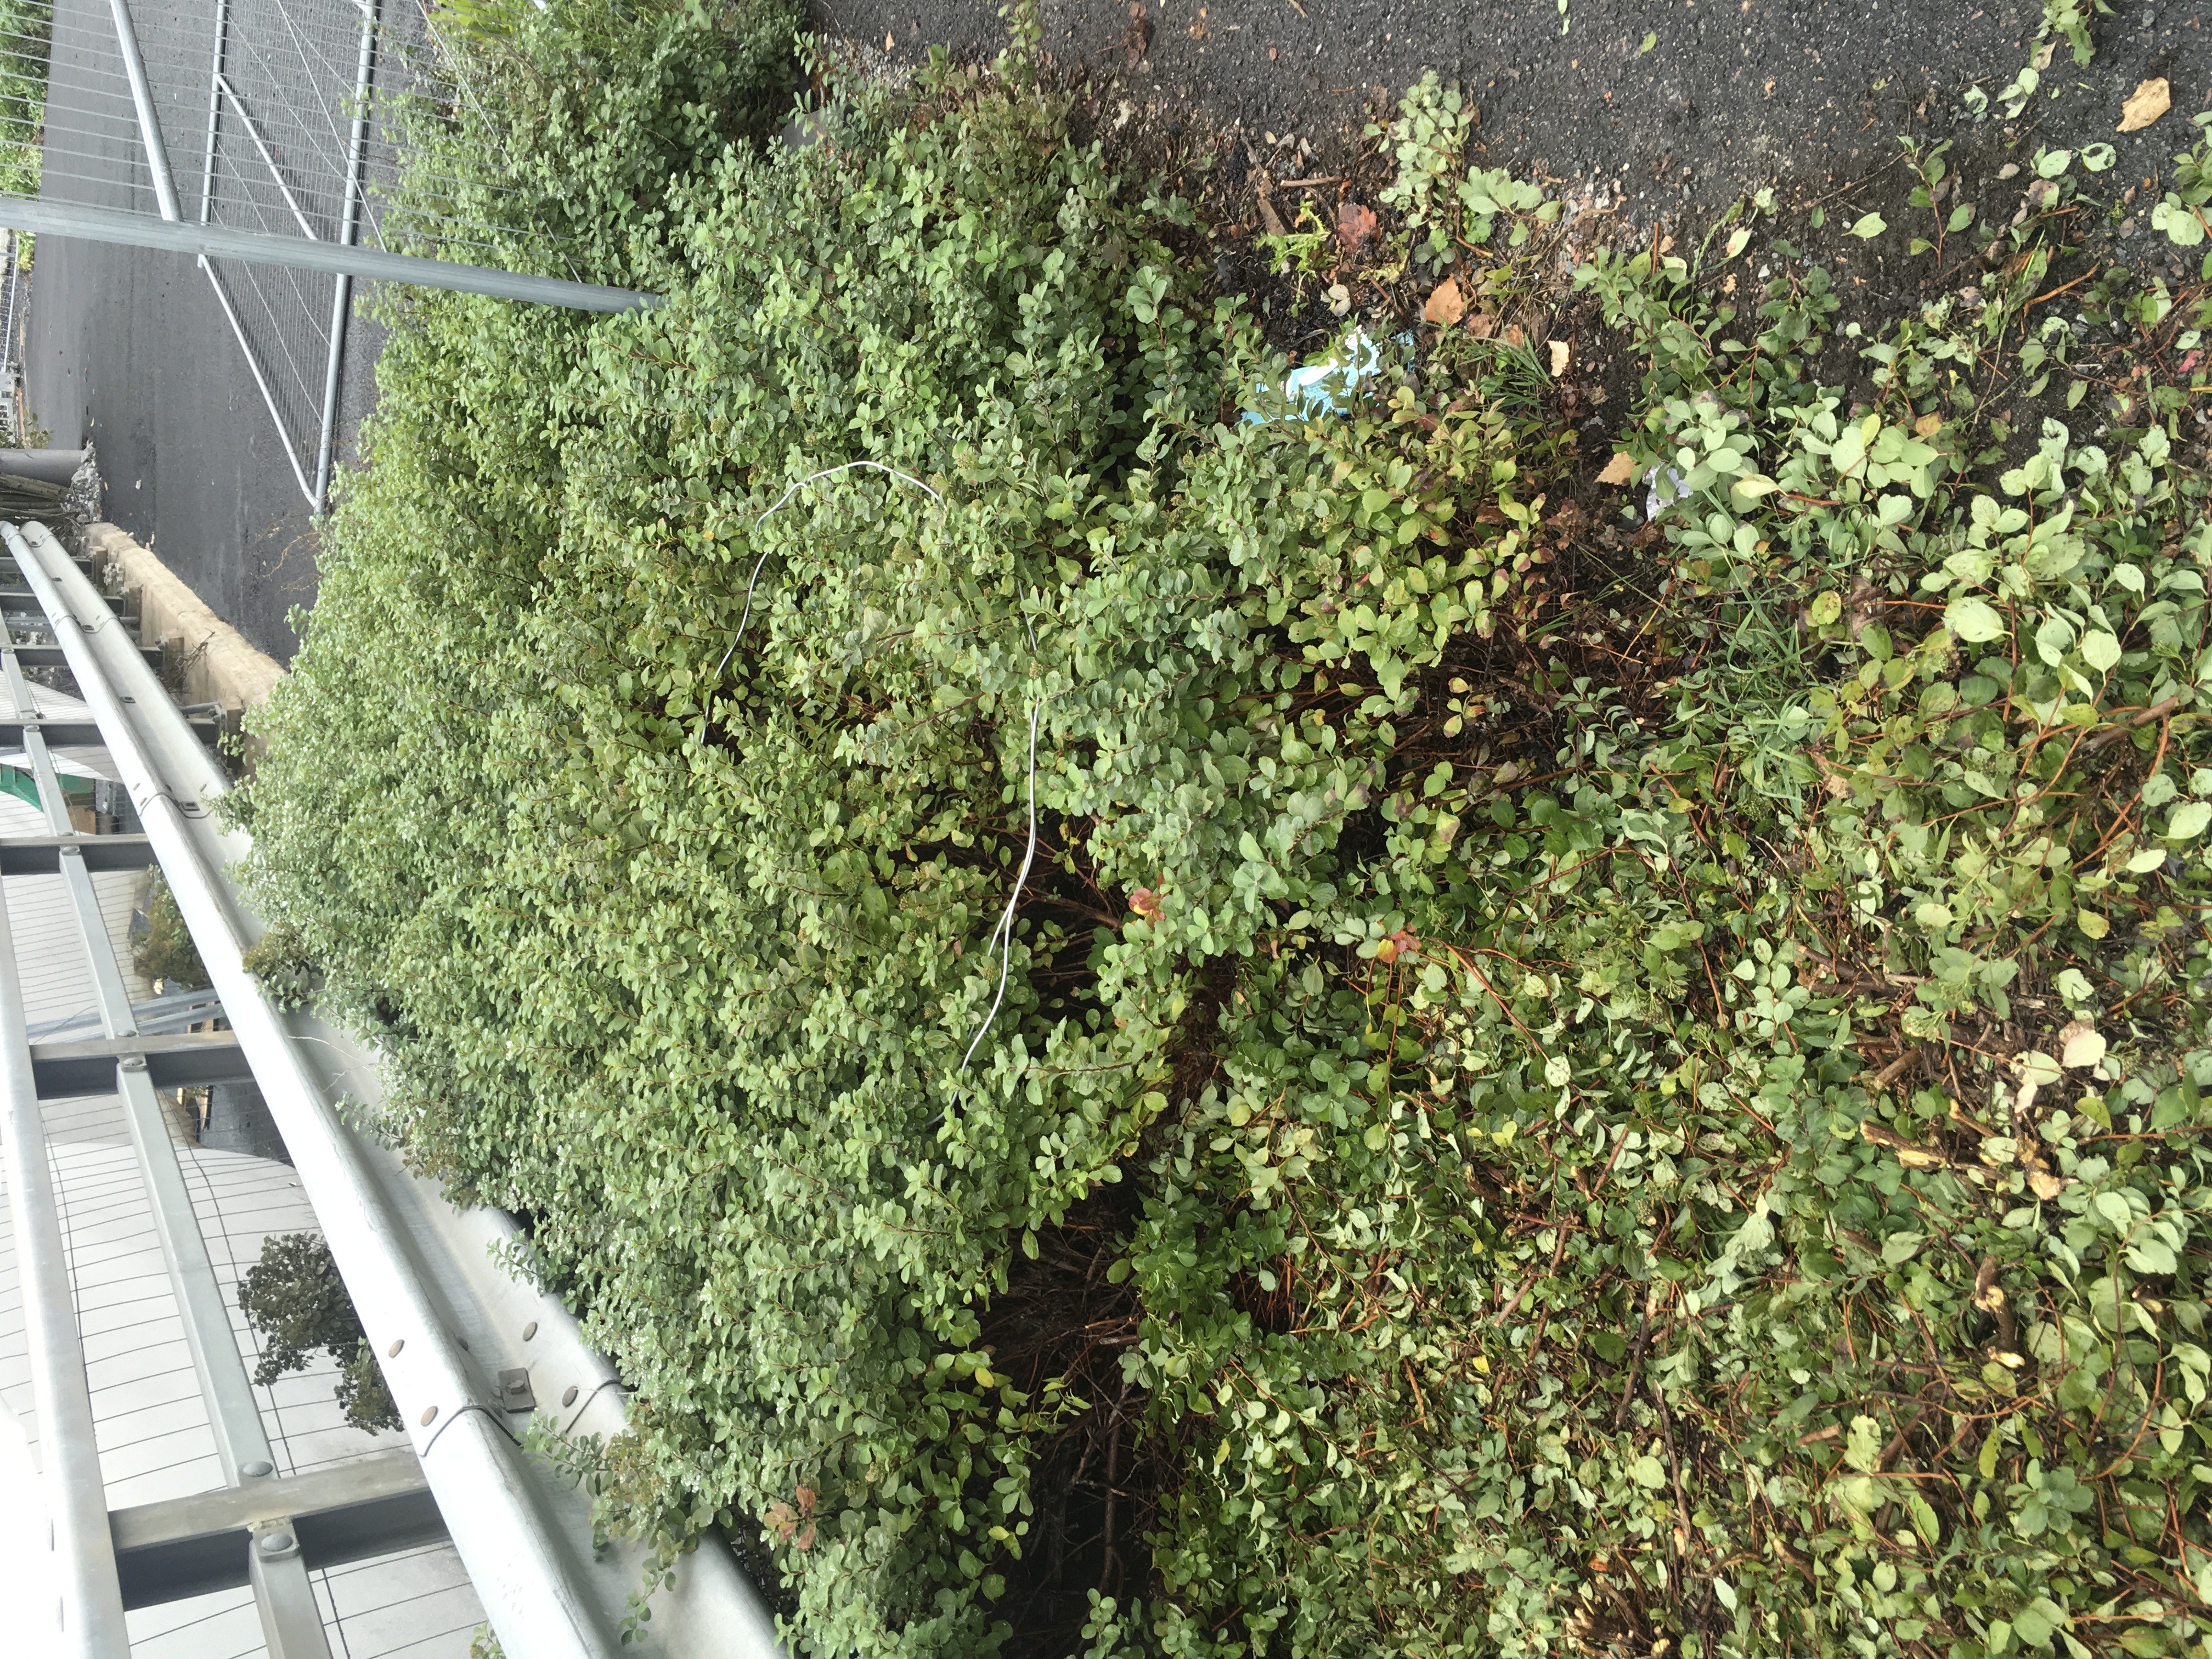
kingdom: Plantae
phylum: Tracheophyta
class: Magnoliopsida
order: Rosales
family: Rosaceae
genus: Spiraea
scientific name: Spiraea betulifolia
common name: bjørkebladspirea
